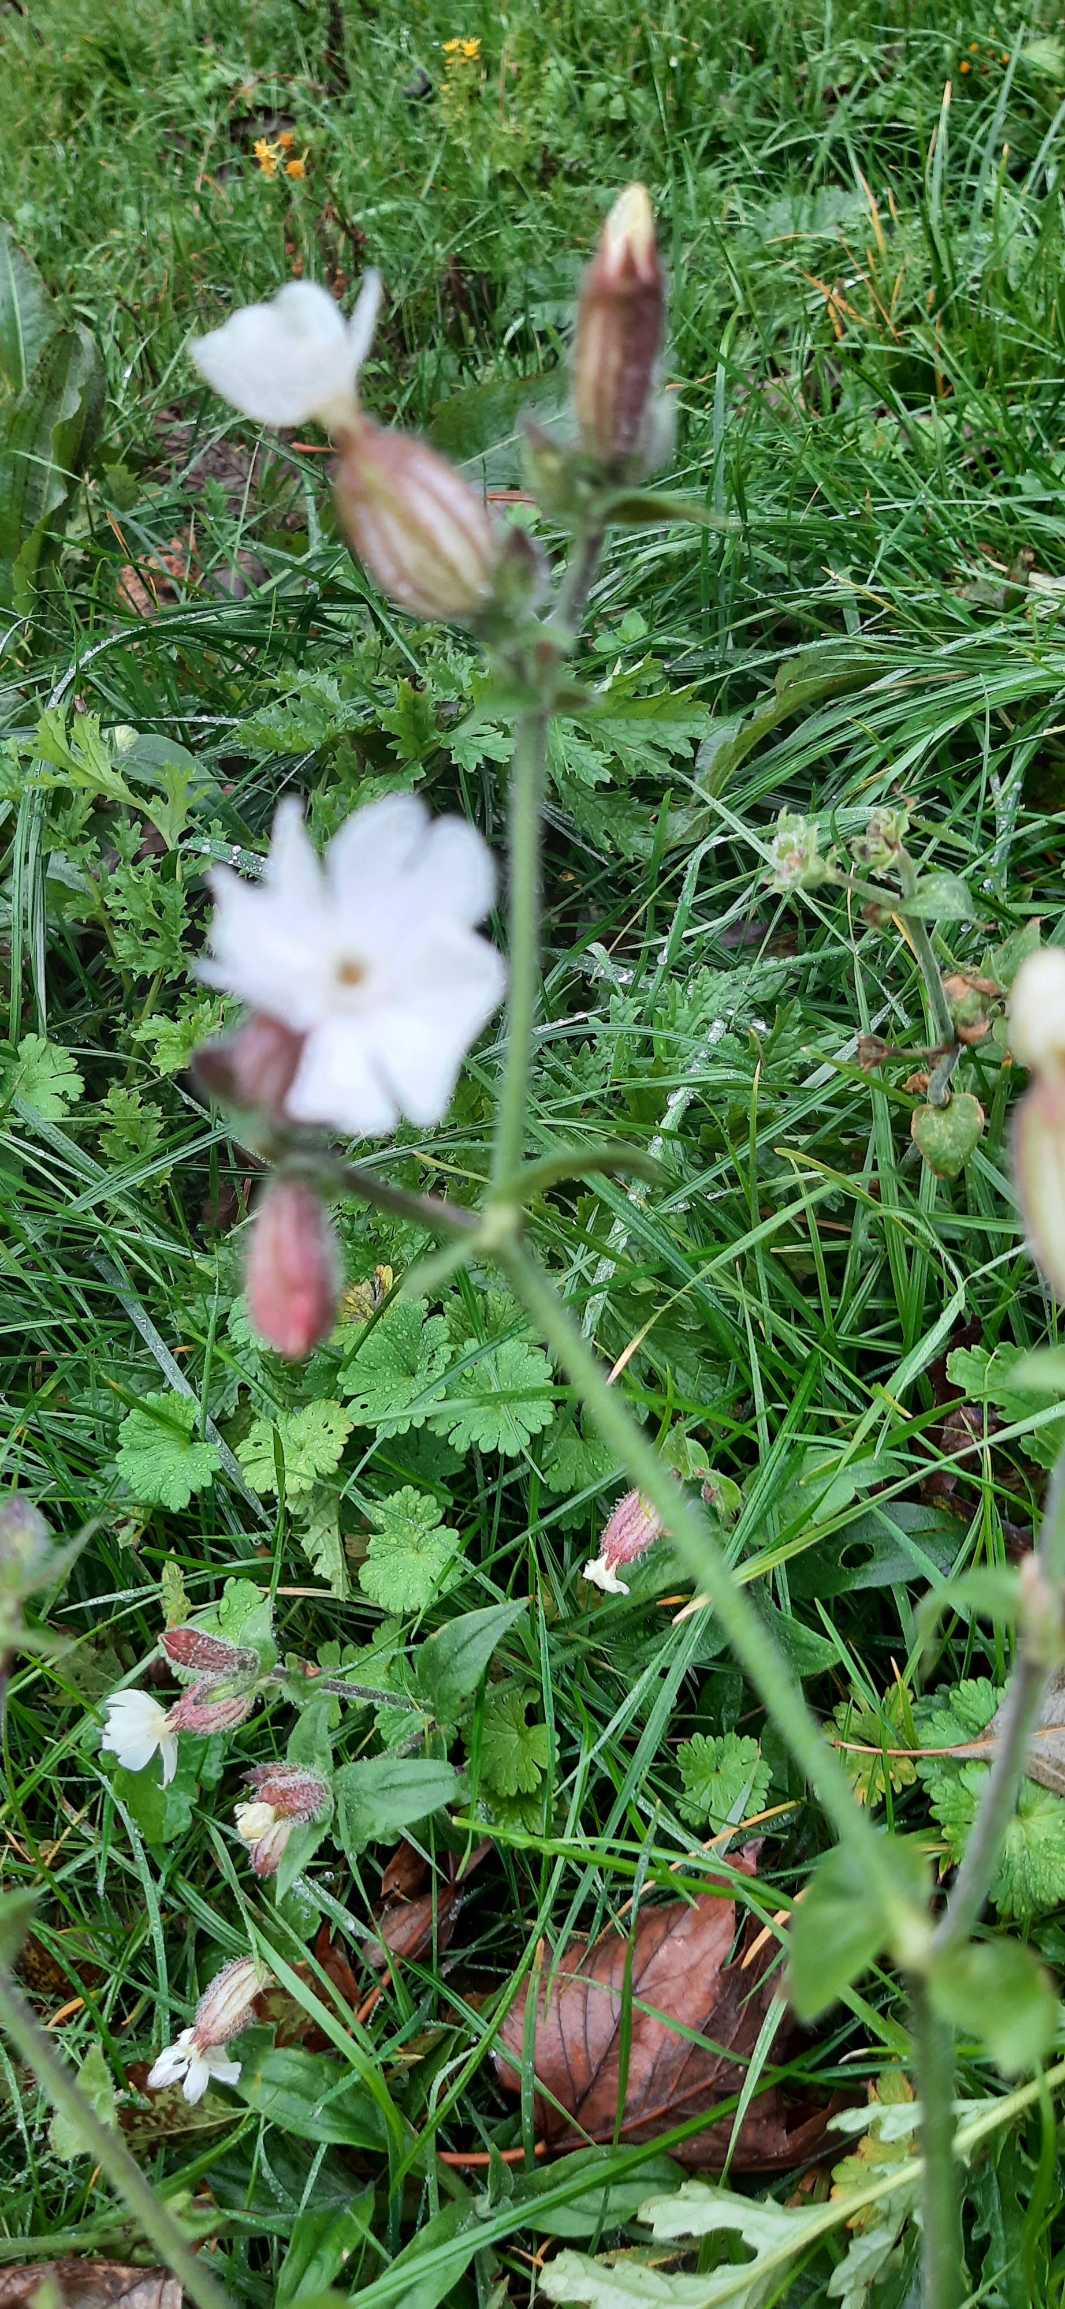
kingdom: Plantae
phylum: Tracheophyta
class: Magnoliopsida
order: Caryophyllales
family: Caryophyllaceae
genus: Silene
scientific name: Silene latifolia
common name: Aftenpragtstjerne
